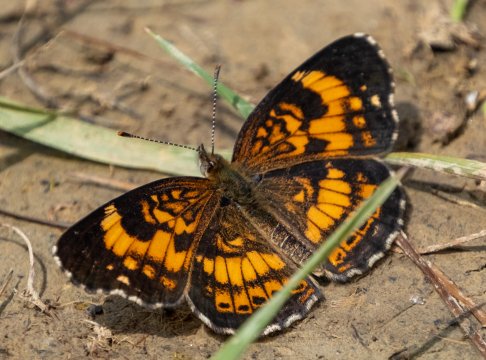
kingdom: Animalia
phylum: Arthropoda
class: Insecta
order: Lepidoptera
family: Nymphalidae
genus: Chlosyne
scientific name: Chlosyne nycteis
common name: Silvery Checkerspot
